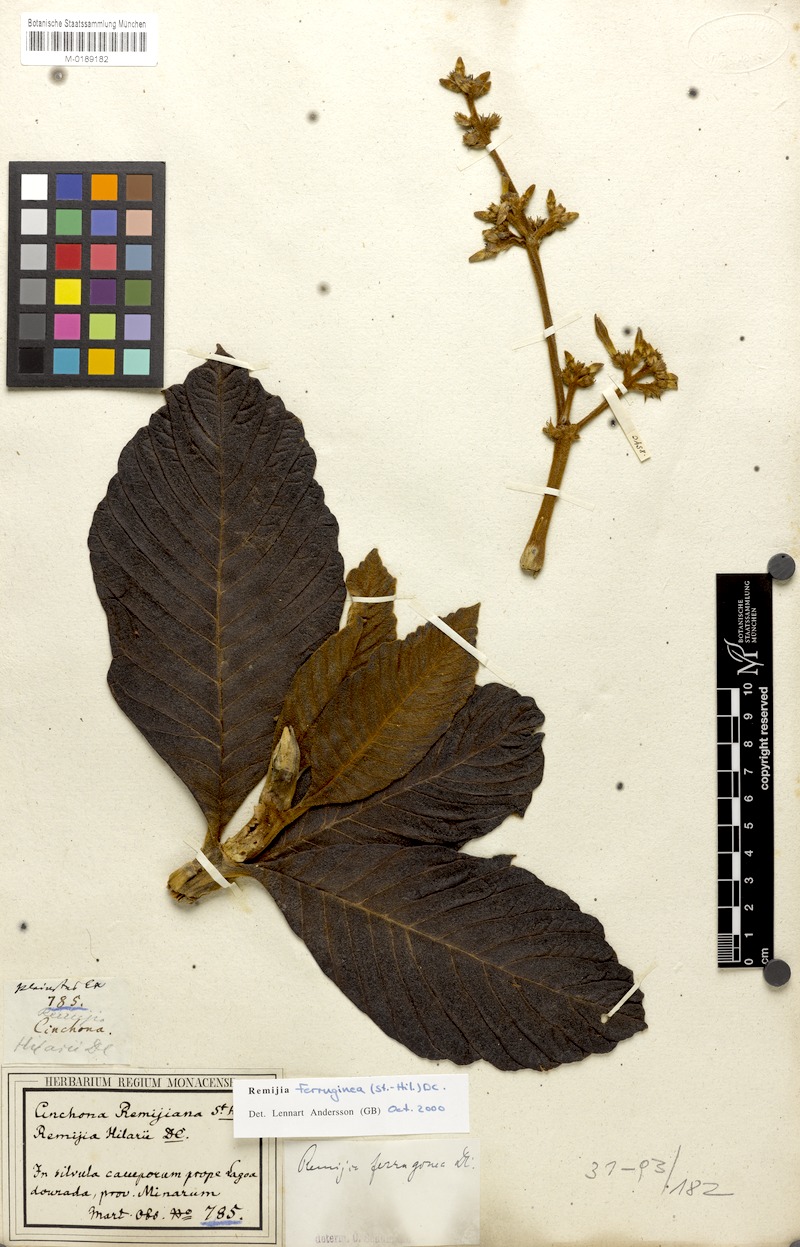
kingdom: Plantae
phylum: Tracheophyta
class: Magnoliopsida
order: Gentianales
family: Rubiaceae
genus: Remijia
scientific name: Remijia ferruginea
